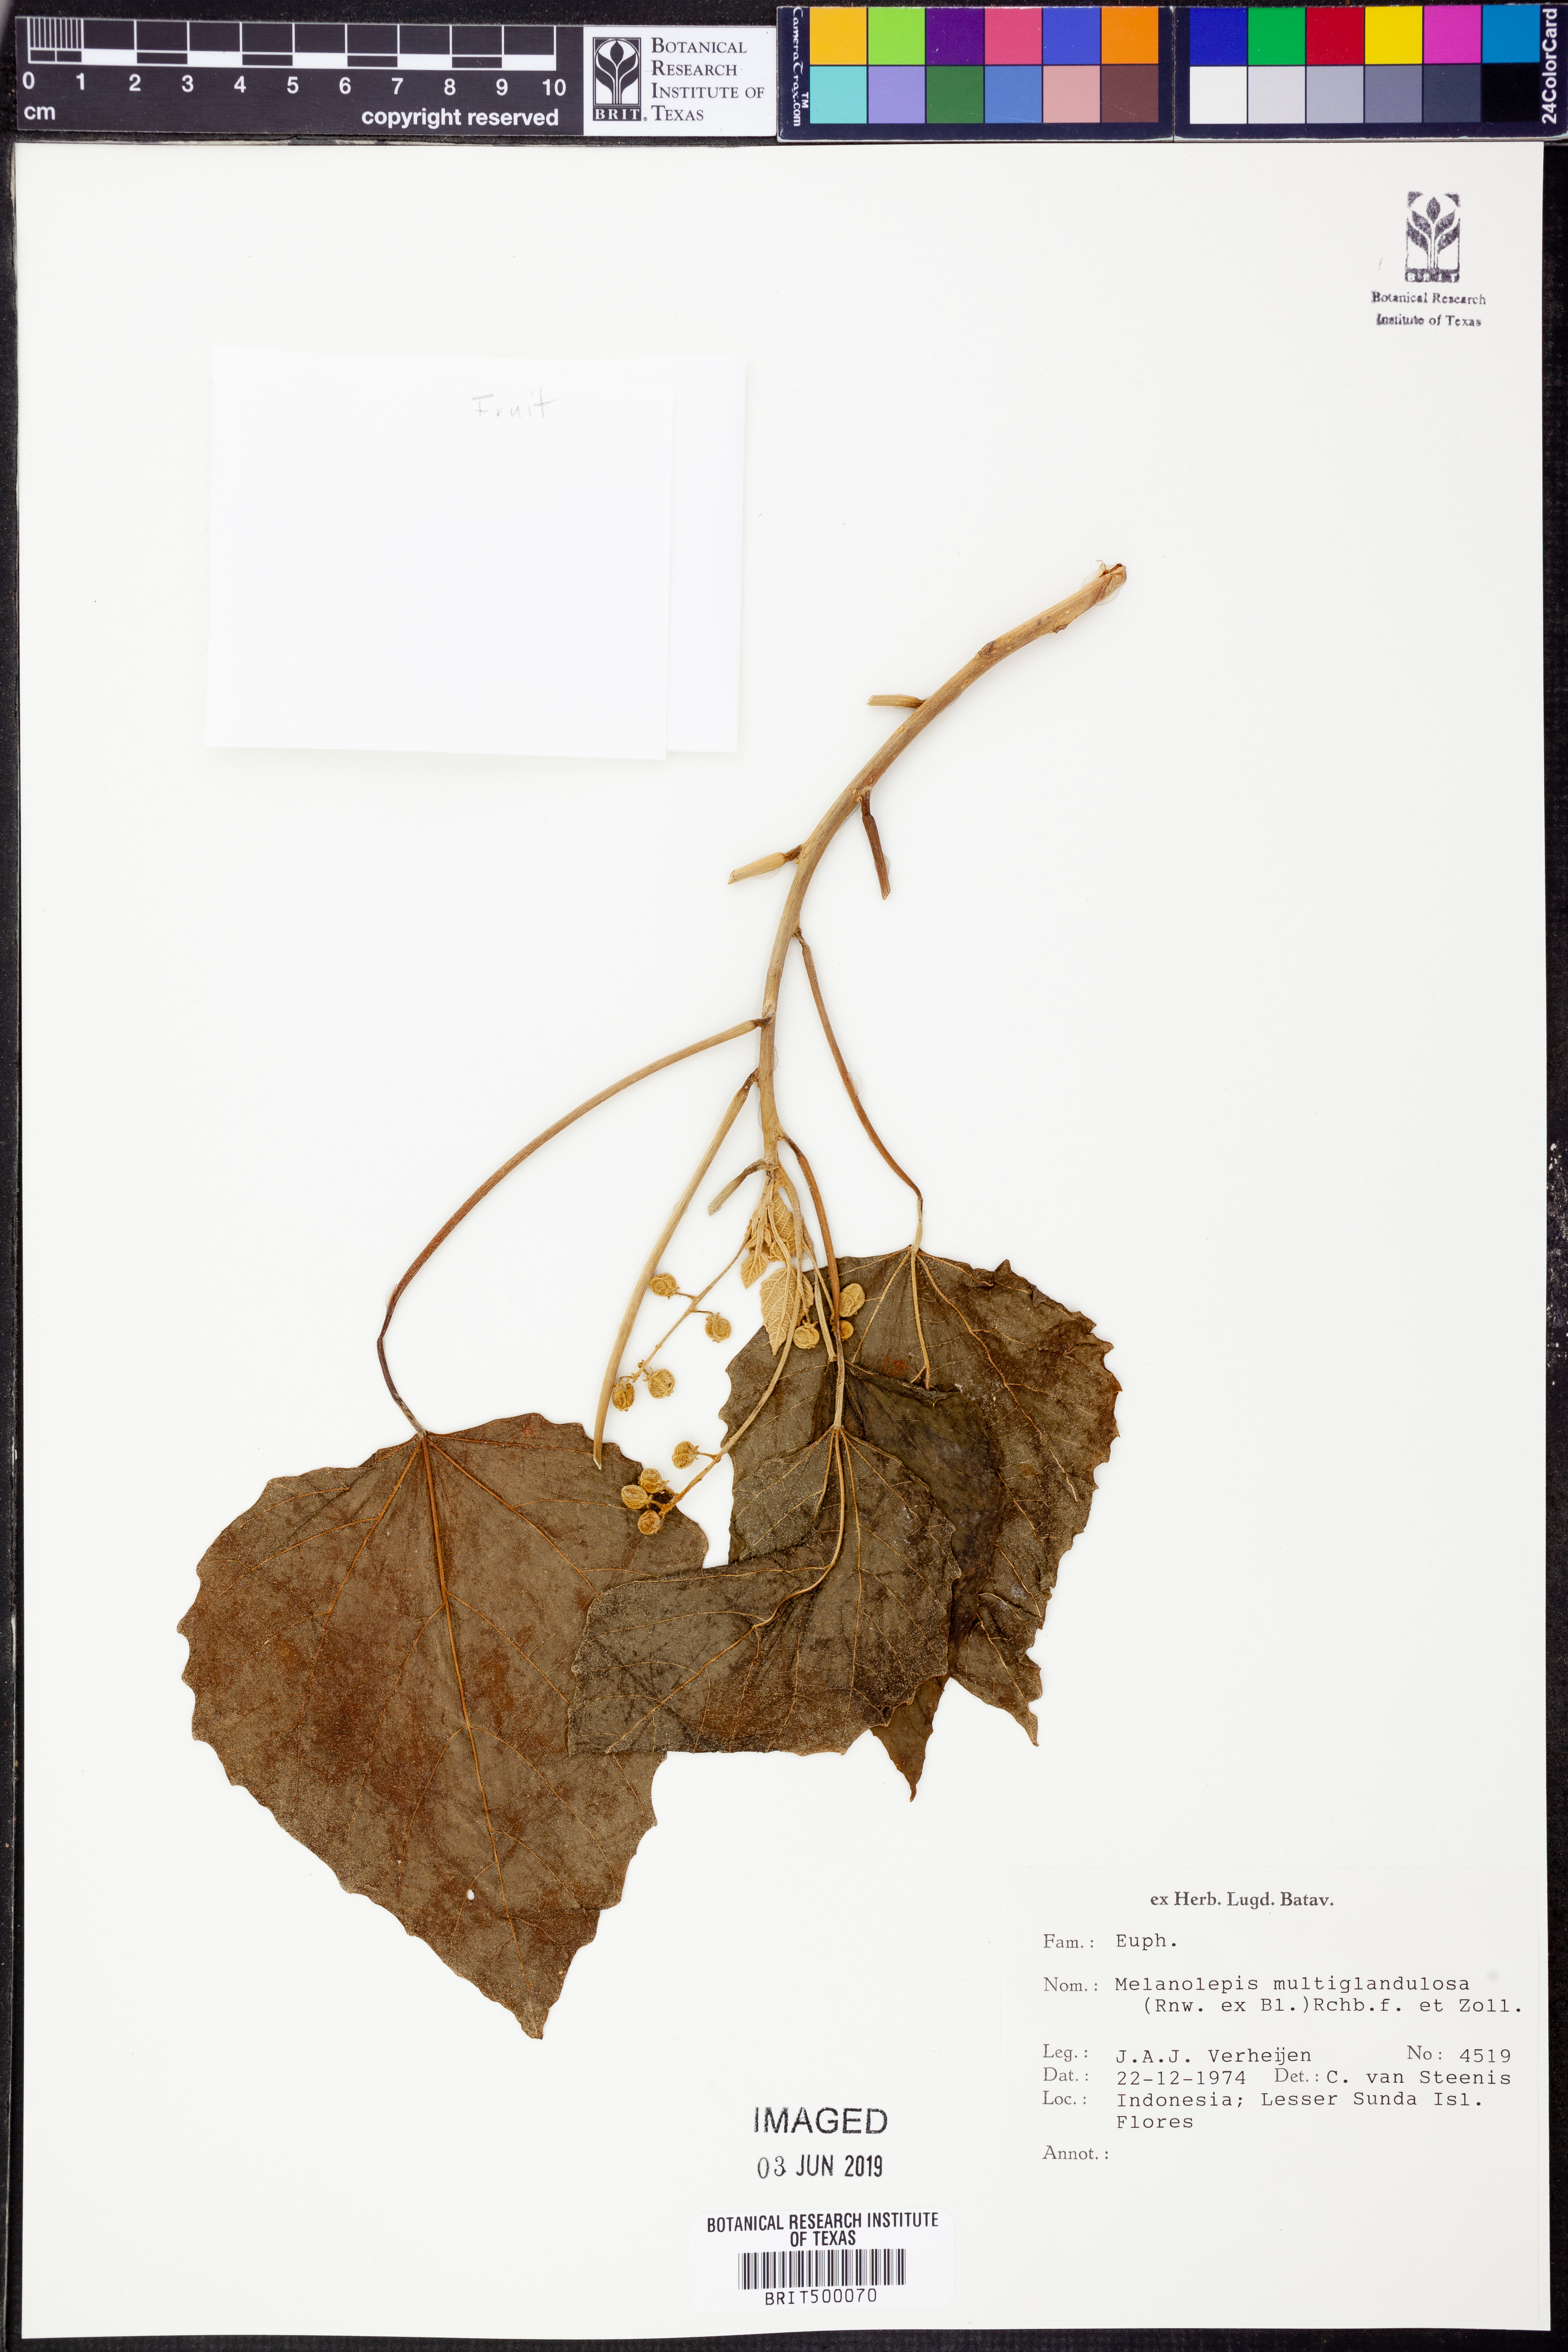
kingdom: Plantae
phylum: Tracheophyta
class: Magnoliopsida
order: Malpighiales
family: Euphorbiaceae
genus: Melanolepis
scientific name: Melanolepis multiglandulosa
